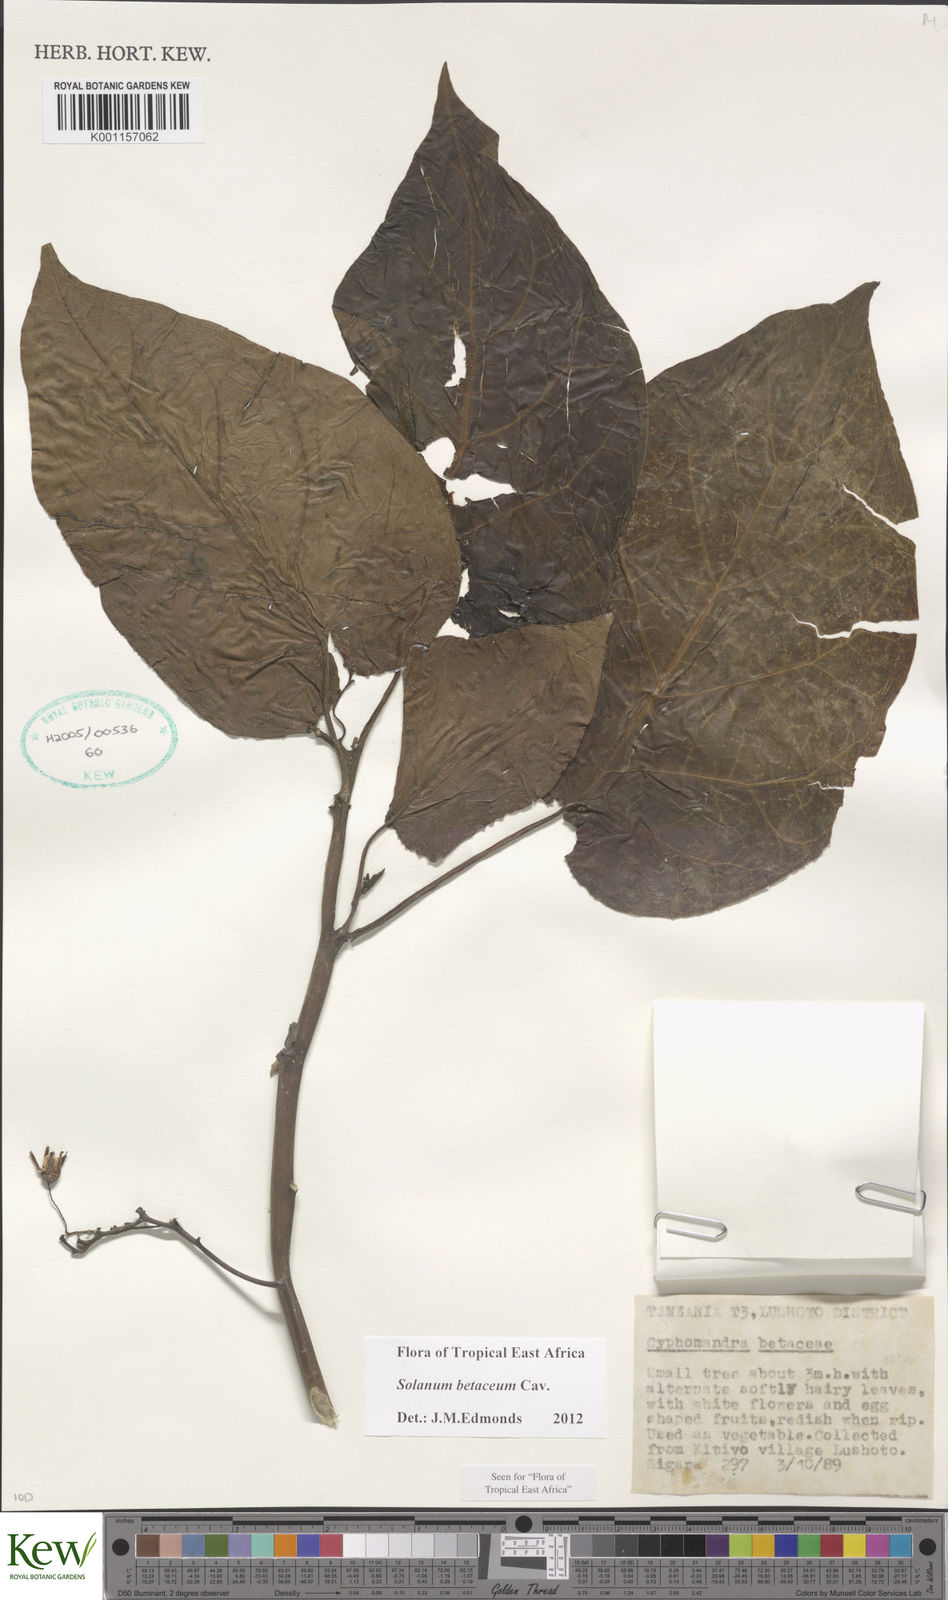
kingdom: Plantae
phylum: Tracheophyta
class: Magnoliopsida
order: Solanales
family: Solanaceae
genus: Solanum
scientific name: Solanum betaceum
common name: Tamarillo
